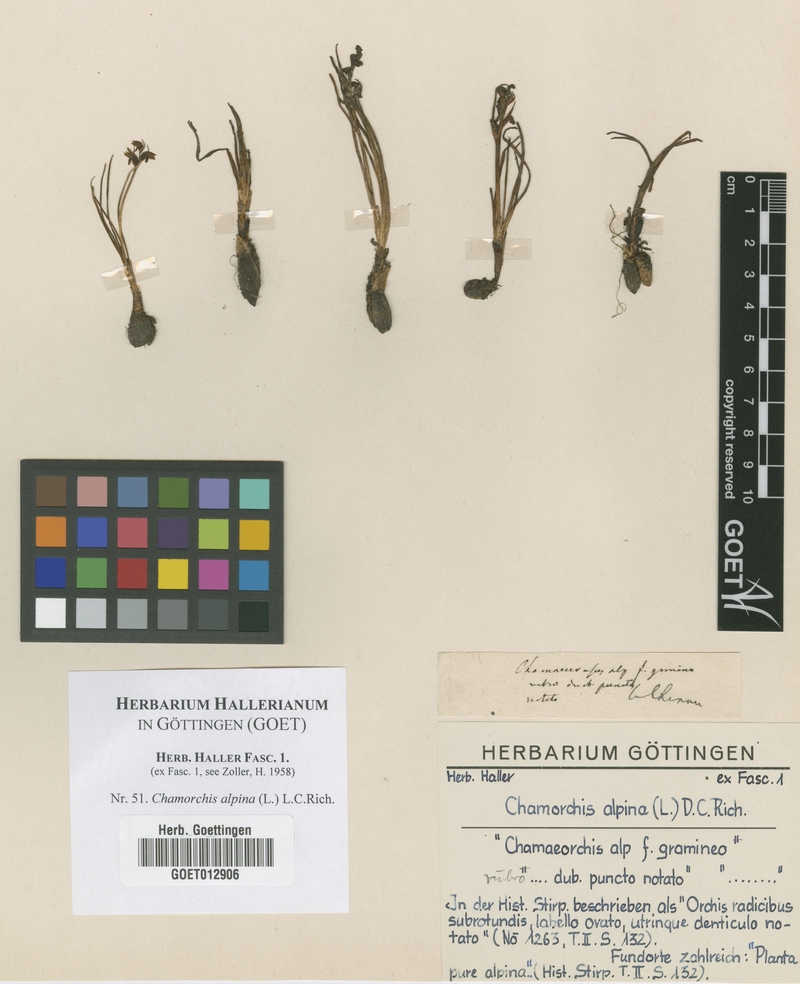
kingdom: Plantae
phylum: Tracheophyta
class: Liliopsida
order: Asparagales
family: Orchidaceae
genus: Chamorchis
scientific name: Chamorchis alpina
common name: Alpine chamorchis
